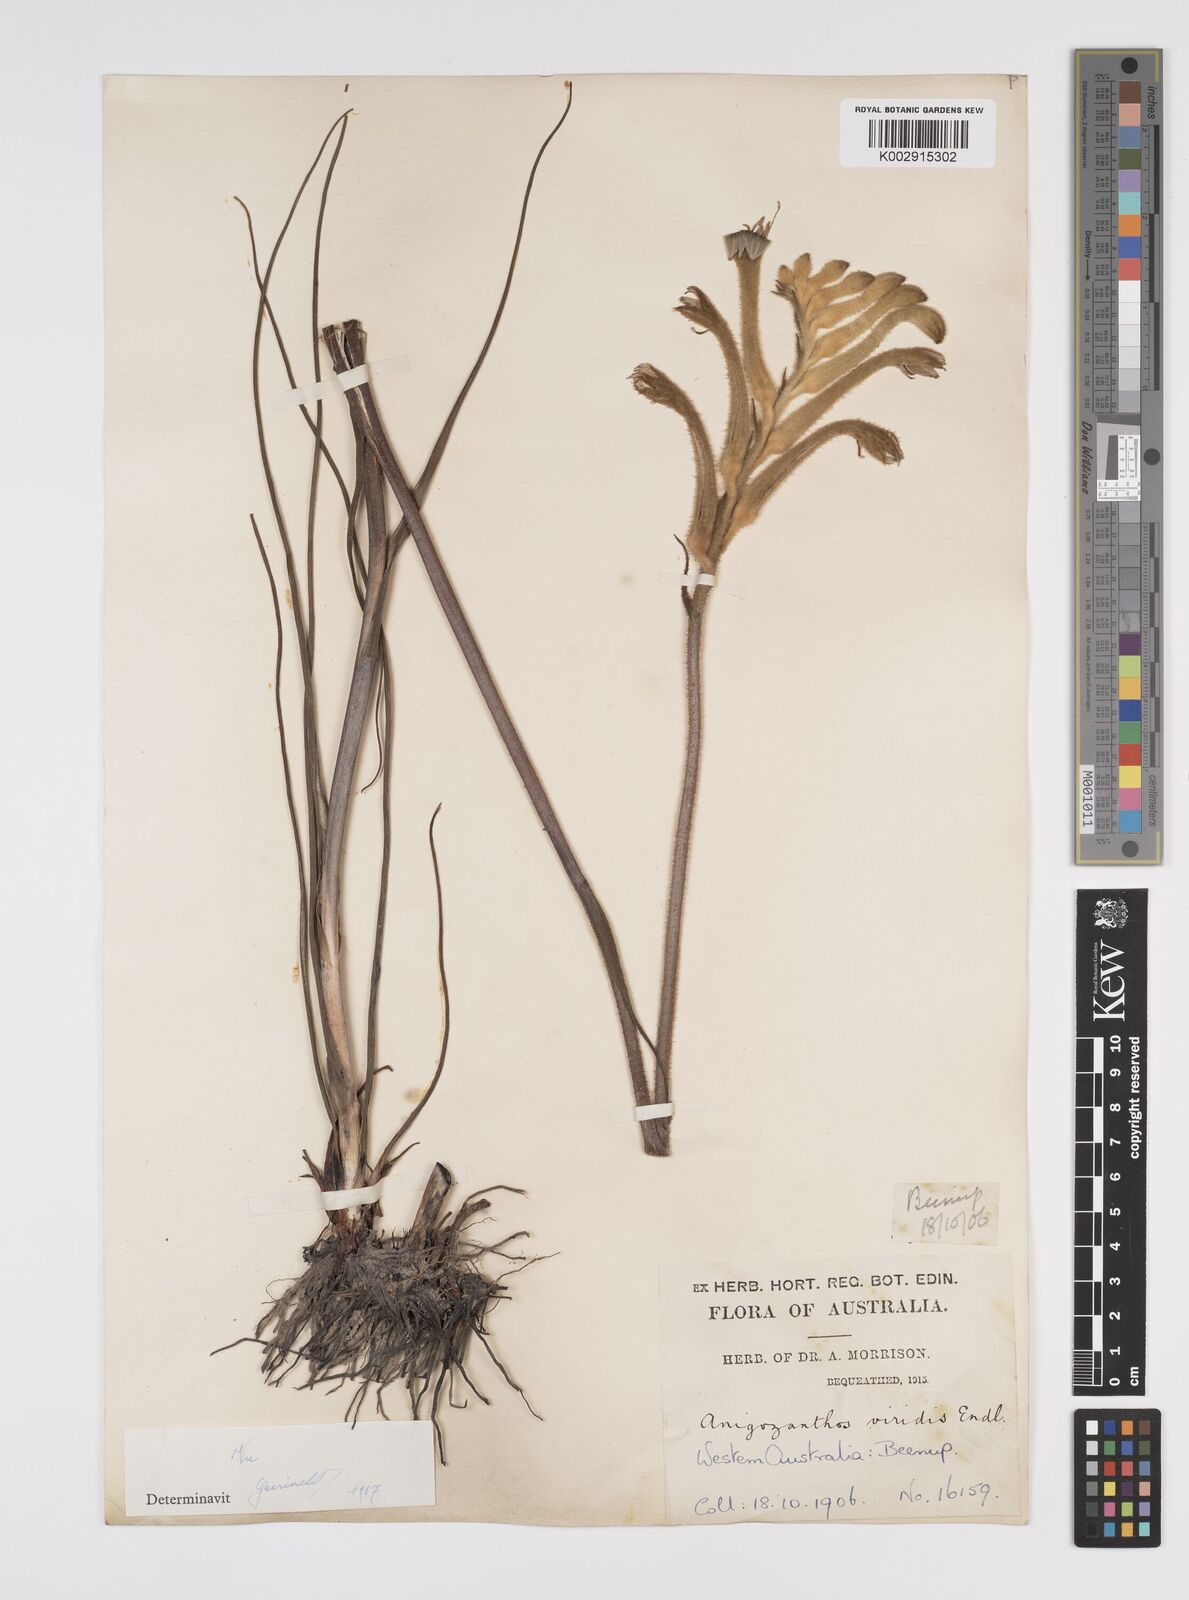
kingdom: Plantae
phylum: Tracheophyta
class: Liliopsida
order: Commelinales
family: Haemodoraceae
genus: Anigozanthos
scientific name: Anigozanthos viridis
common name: Green kangaroo-paw
